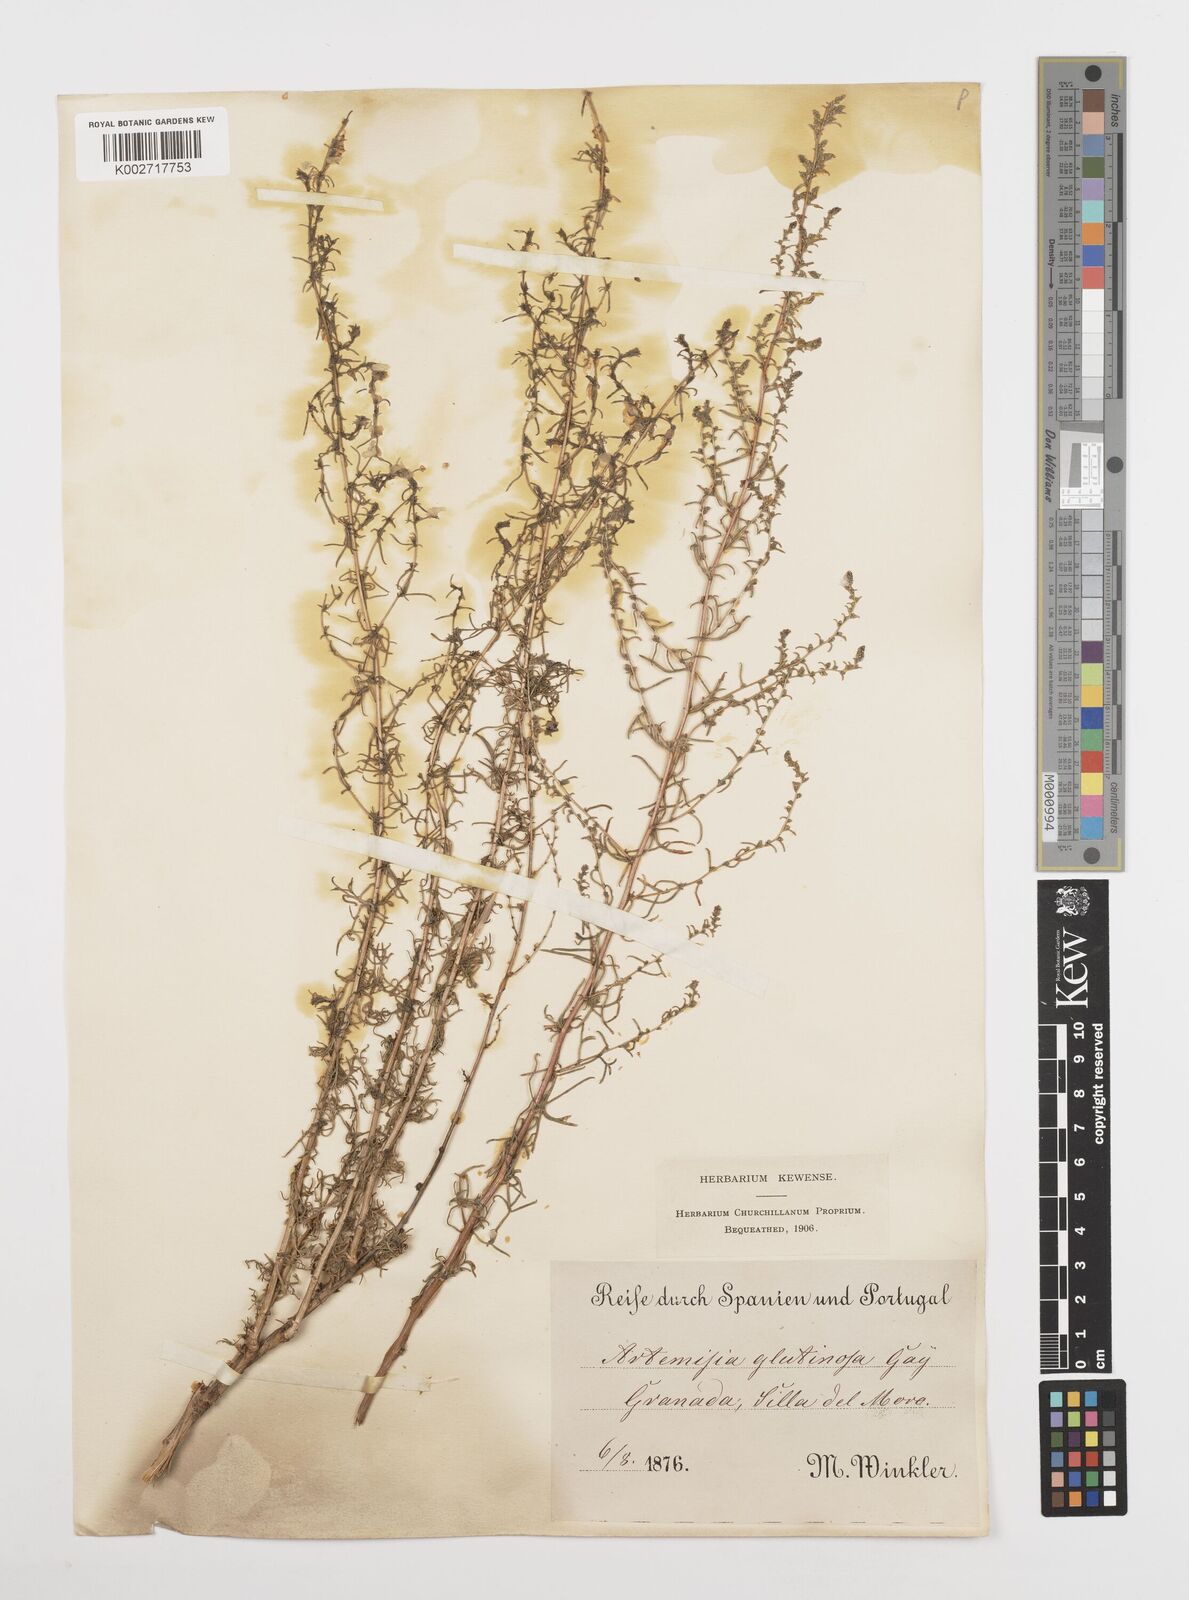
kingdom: Plantae
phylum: Tracheophyta
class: Magnoliopsida
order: Asterales
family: Asteraceae
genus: Artemisia
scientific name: Artemisia campestris
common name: Field wormwood
